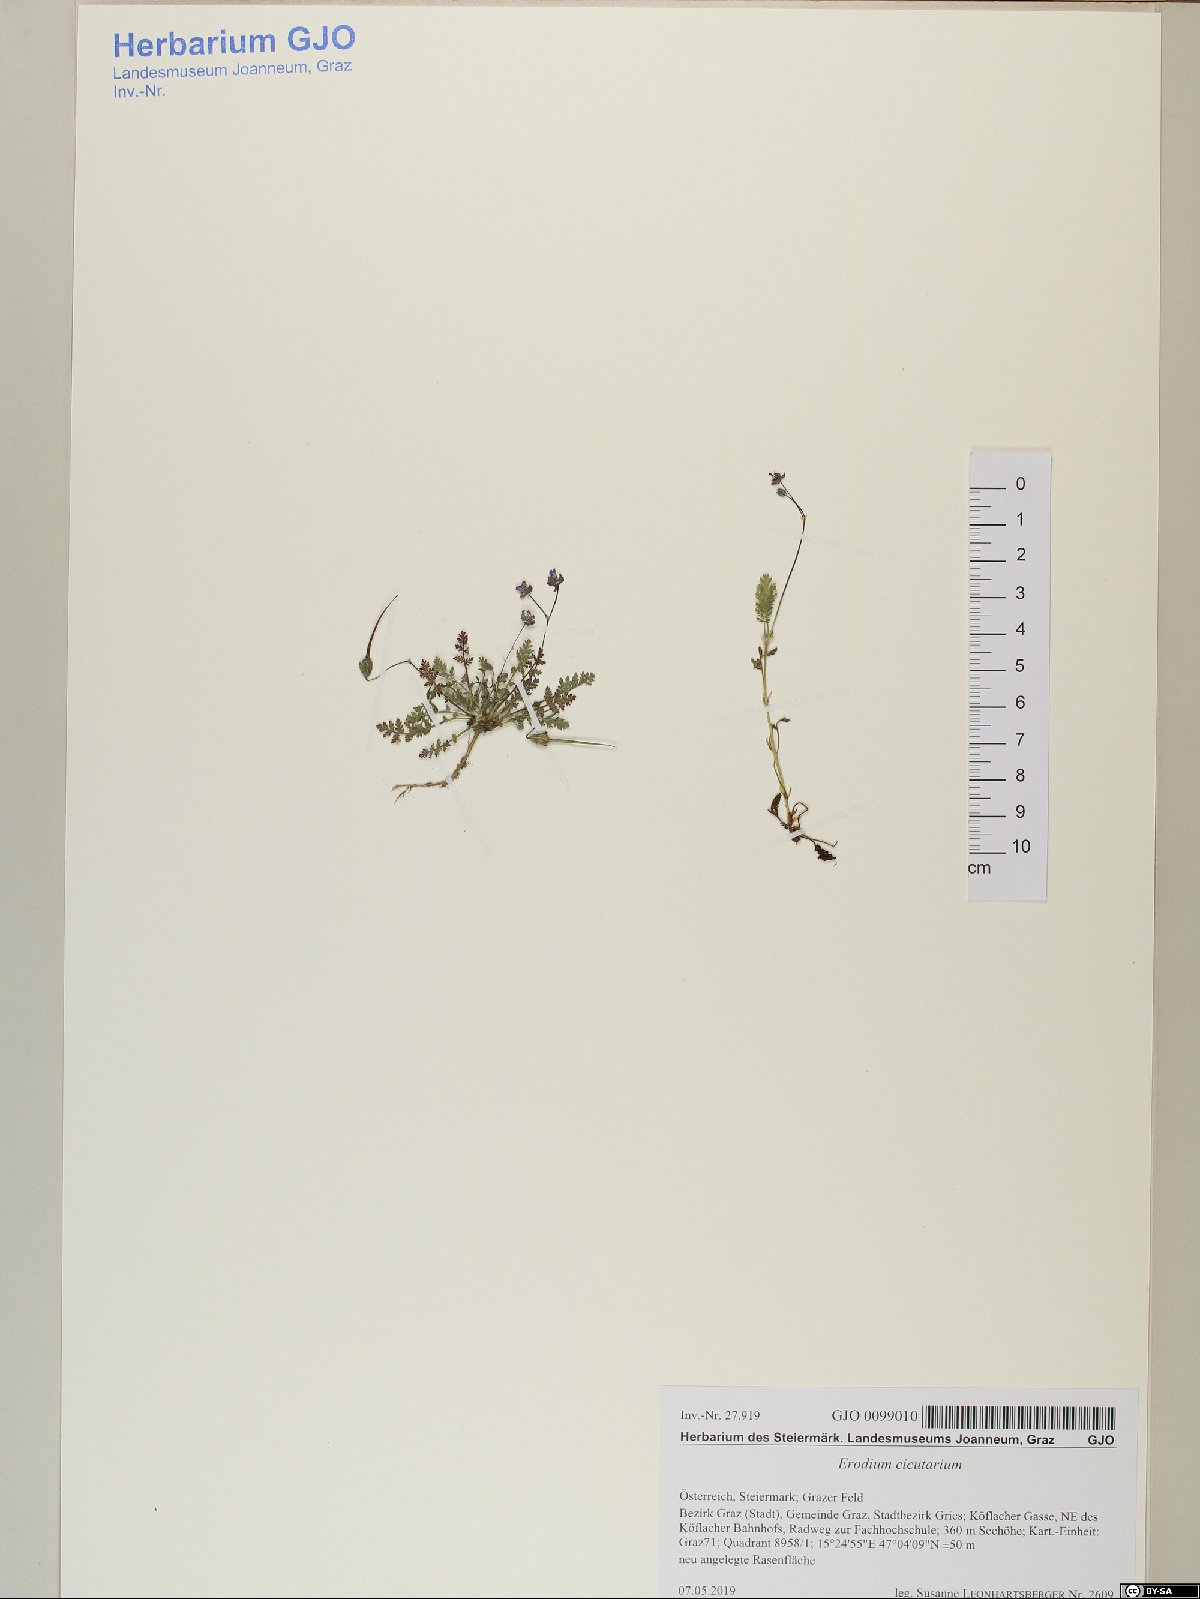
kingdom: Plantae
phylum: Tracheophyta
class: Magnoliopsida
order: Geraniales
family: Geraniaceae
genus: Erodium
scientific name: Erodium cicutarium
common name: Common stork's-bill
